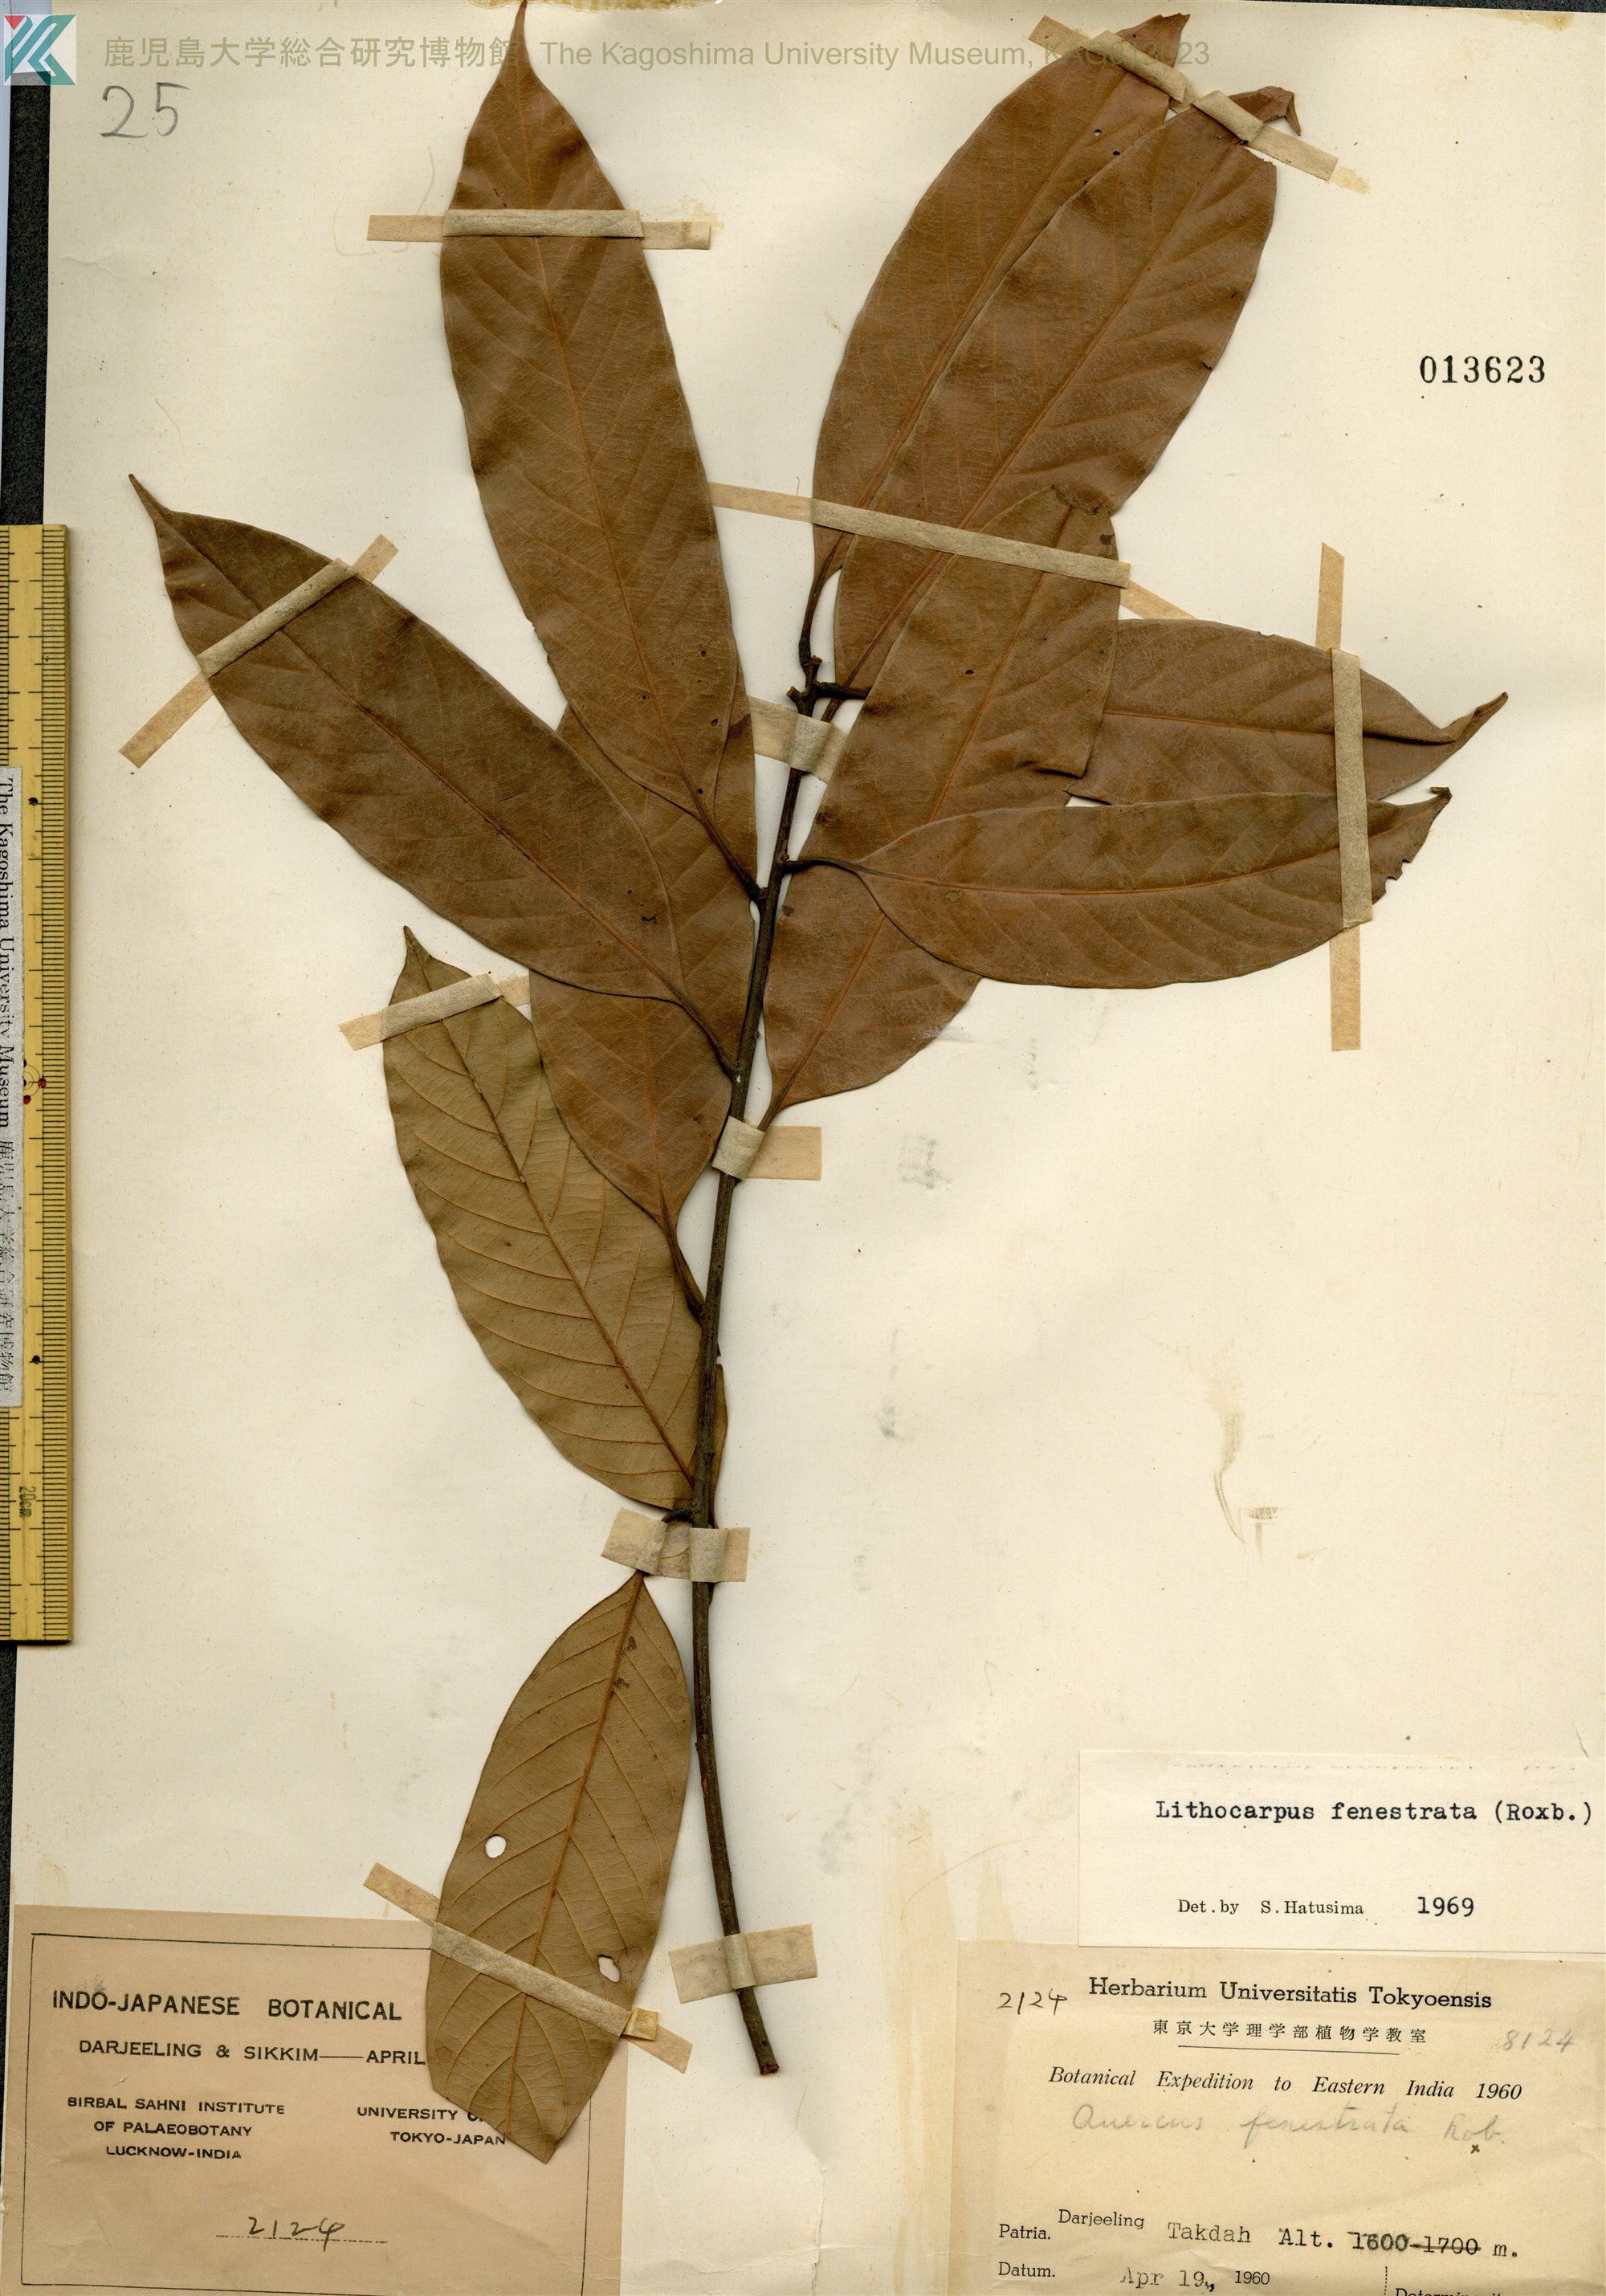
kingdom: Plantae
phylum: Tracheophyta
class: Magnoliopsida
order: Fagales
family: Fagaceae
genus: Lithocarpus
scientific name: Lithocarpus fenestratus
